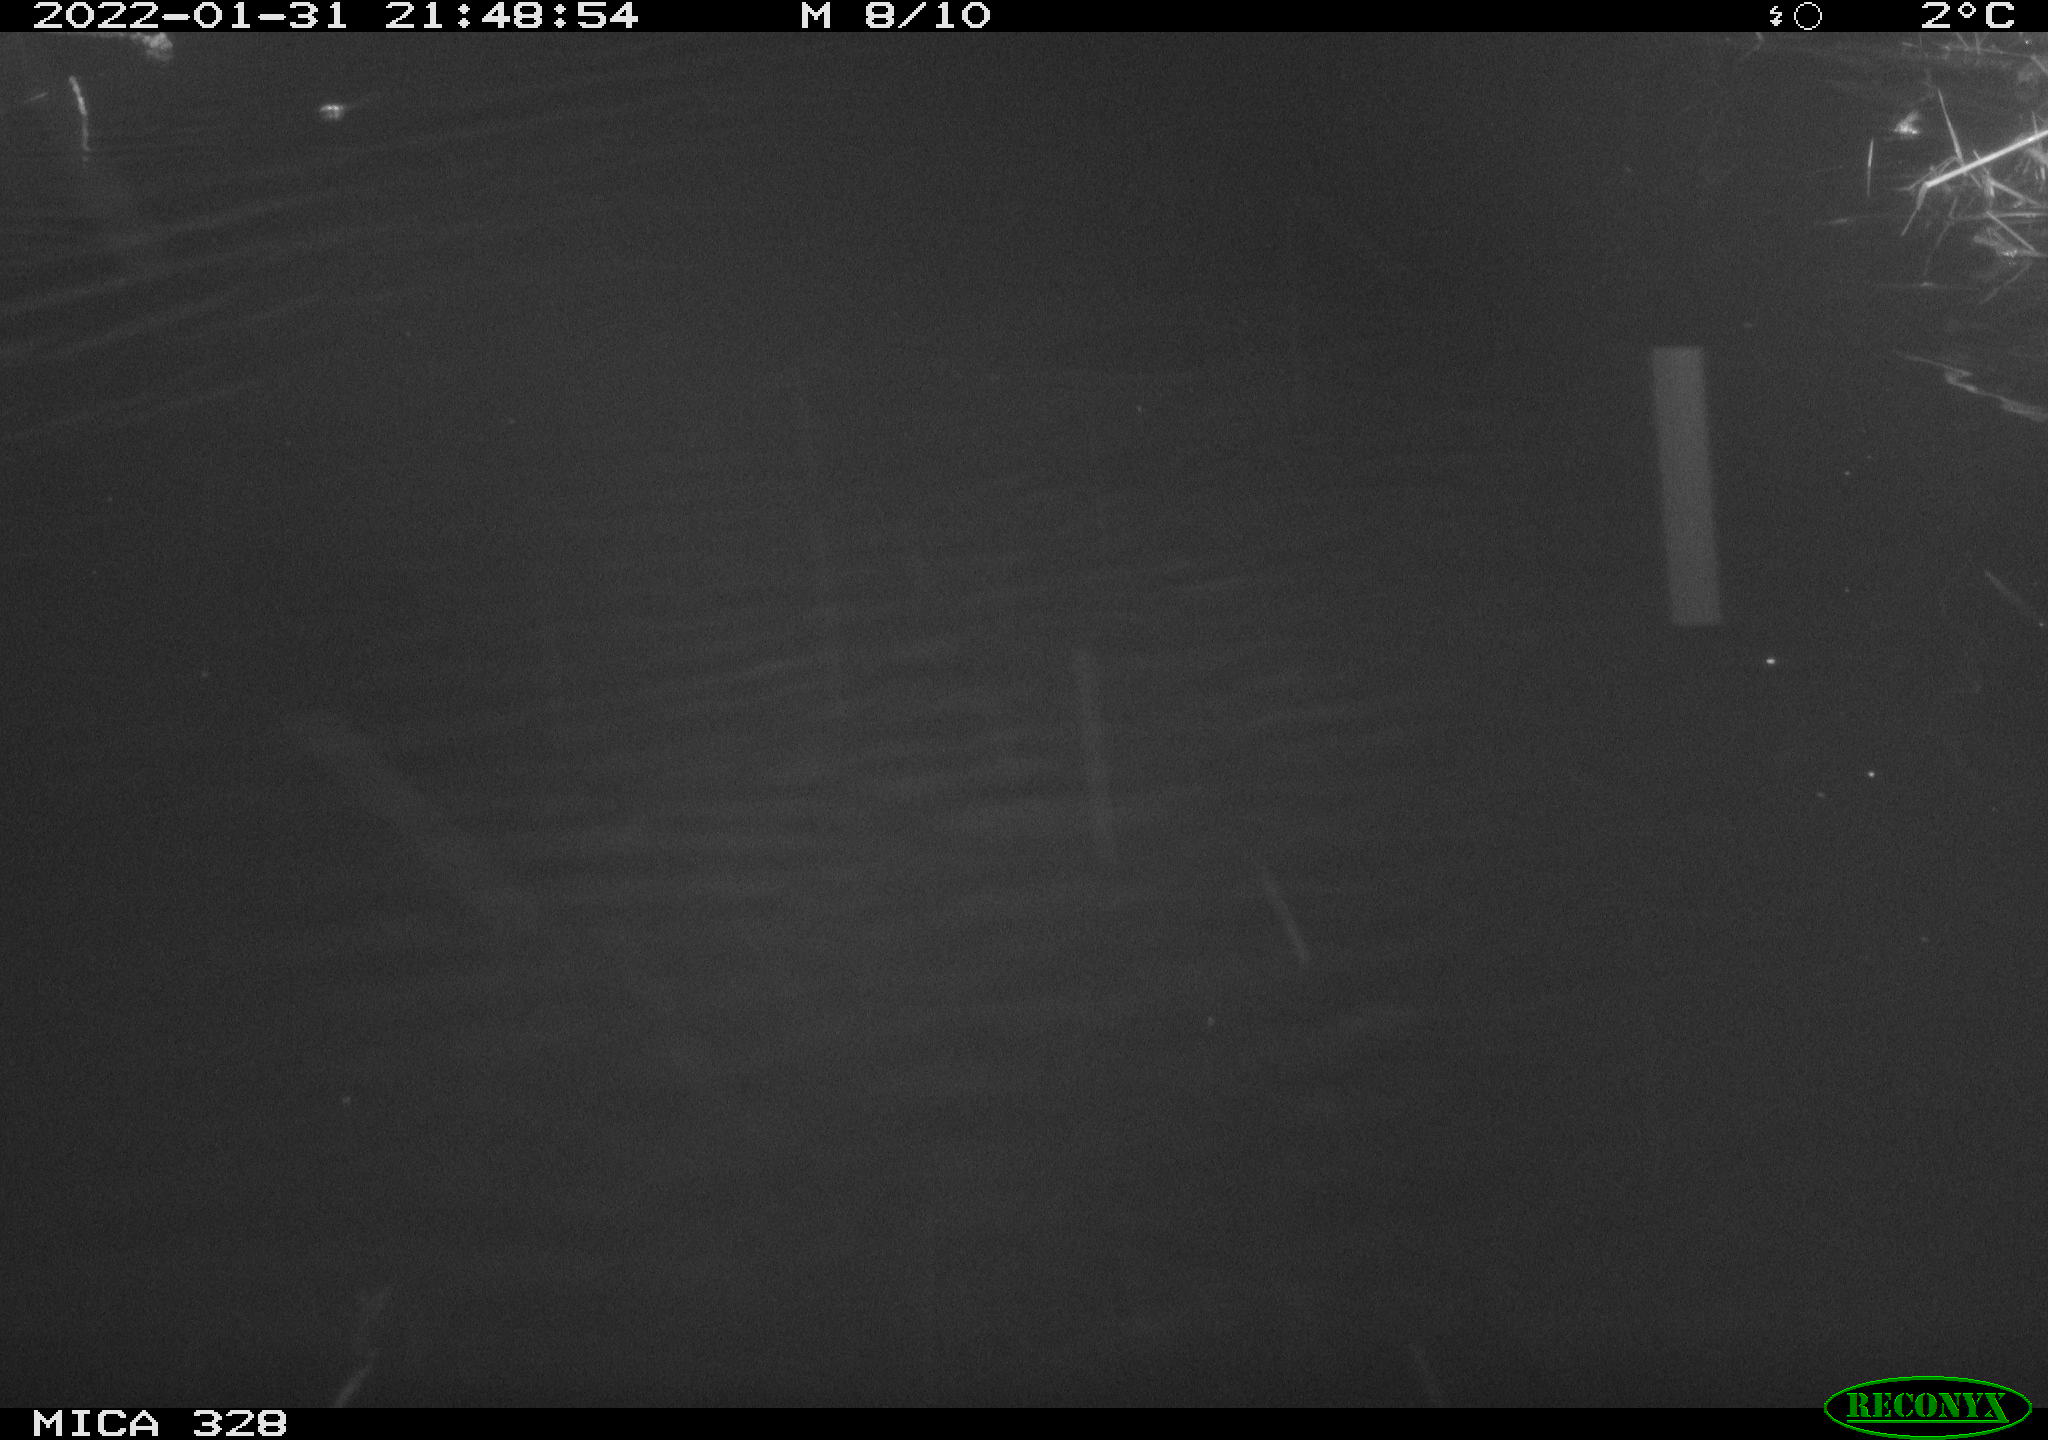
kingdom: Animalia
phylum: Chordata
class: Mammalia
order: Rodentia
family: Cricetidae
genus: Ondatra
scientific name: Ondatra zibethicus
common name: Muskrat
